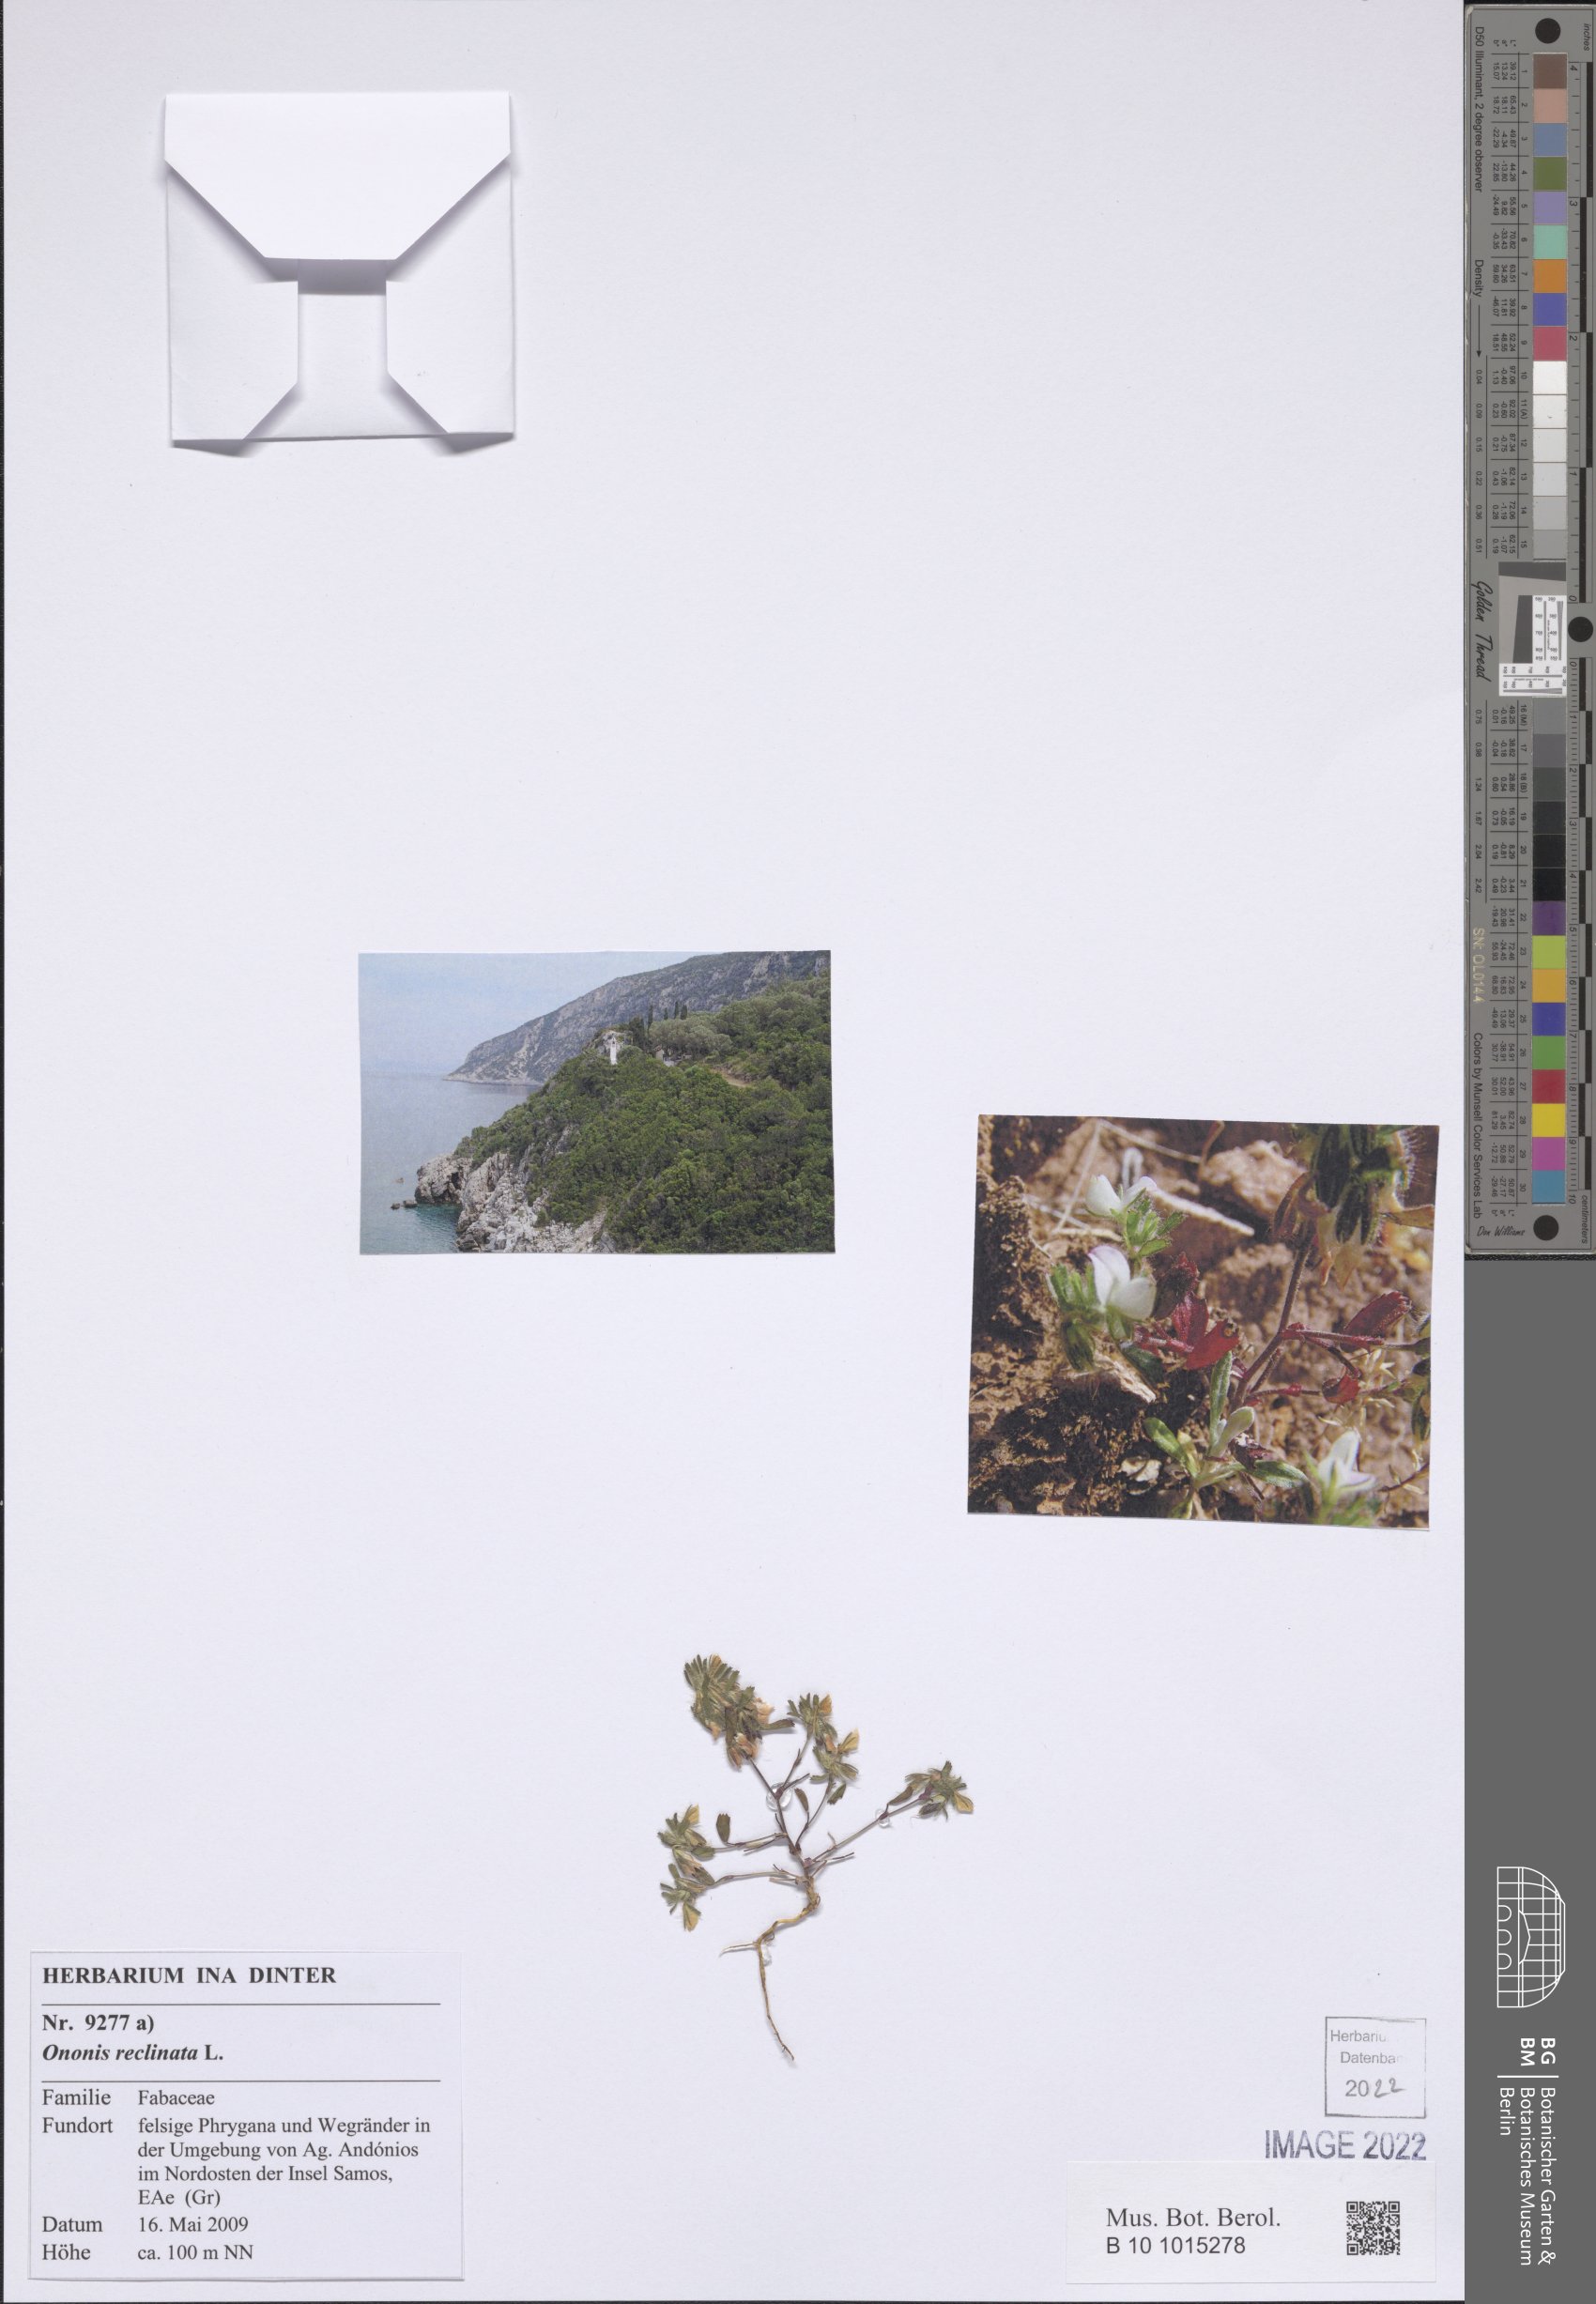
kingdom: Plantae
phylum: Tracheophyta
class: Magnoliopsida
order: Fabales
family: Fabaceae
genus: Ononis
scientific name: Ononis reclinata
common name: Small restharrow
